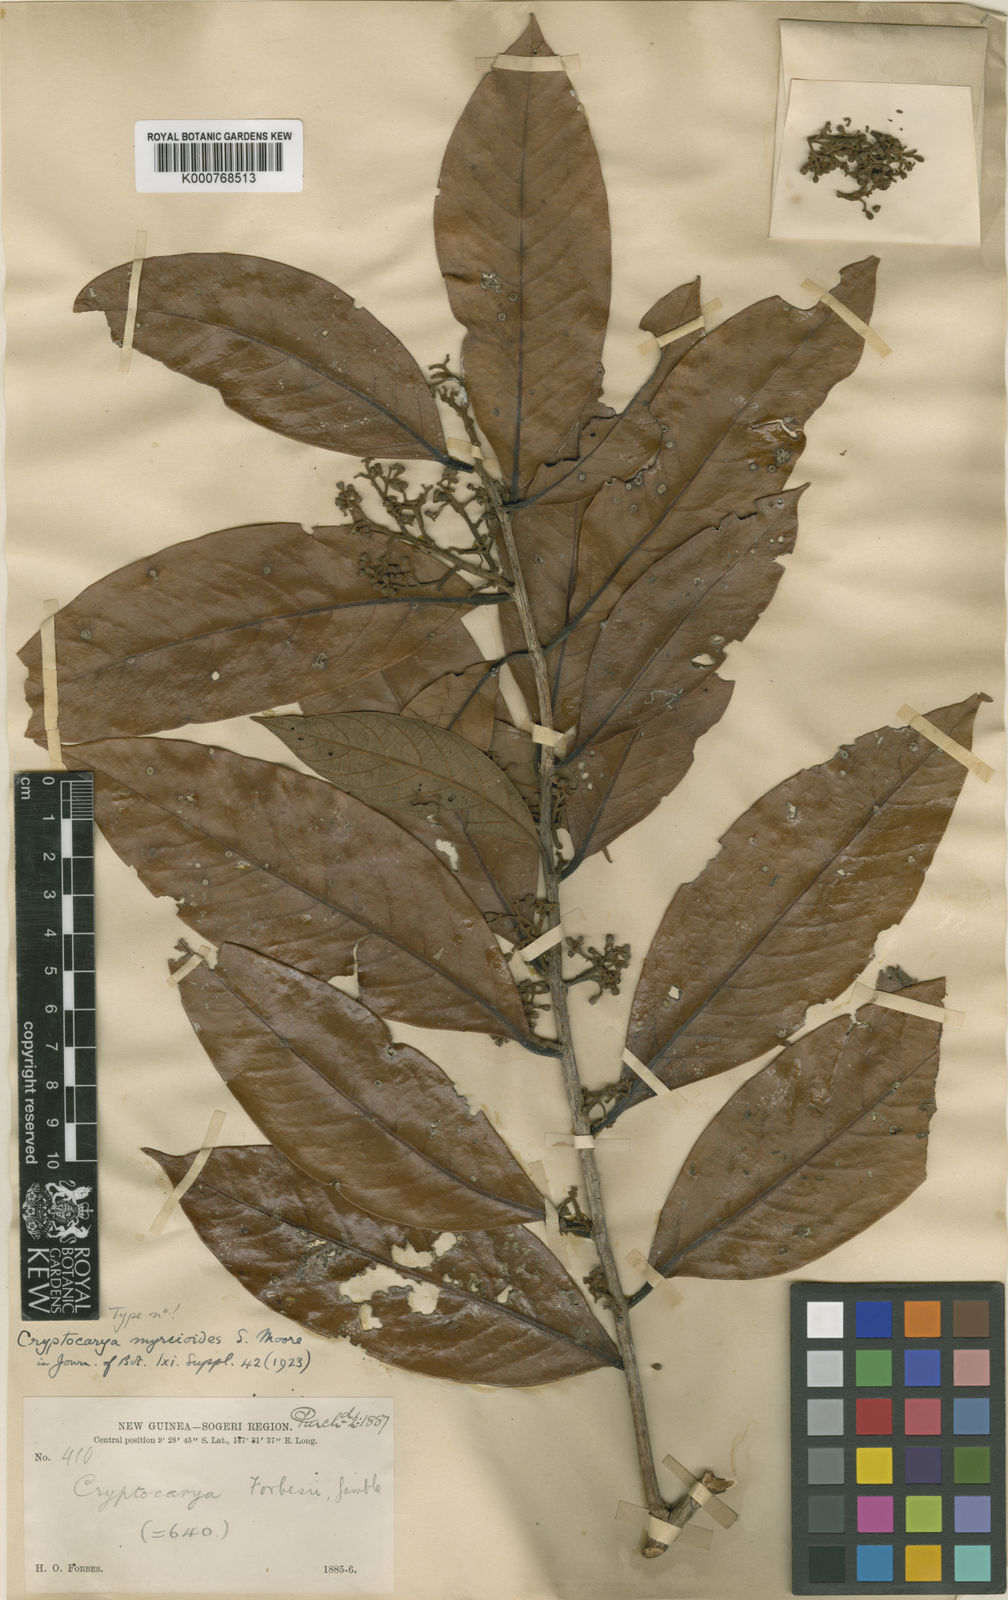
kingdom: Plantae
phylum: Tracheophyta
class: Magnoliopsida
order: Laurales
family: Lauraceae
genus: Cryptocarya
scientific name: Cryptocarya myrcioides
